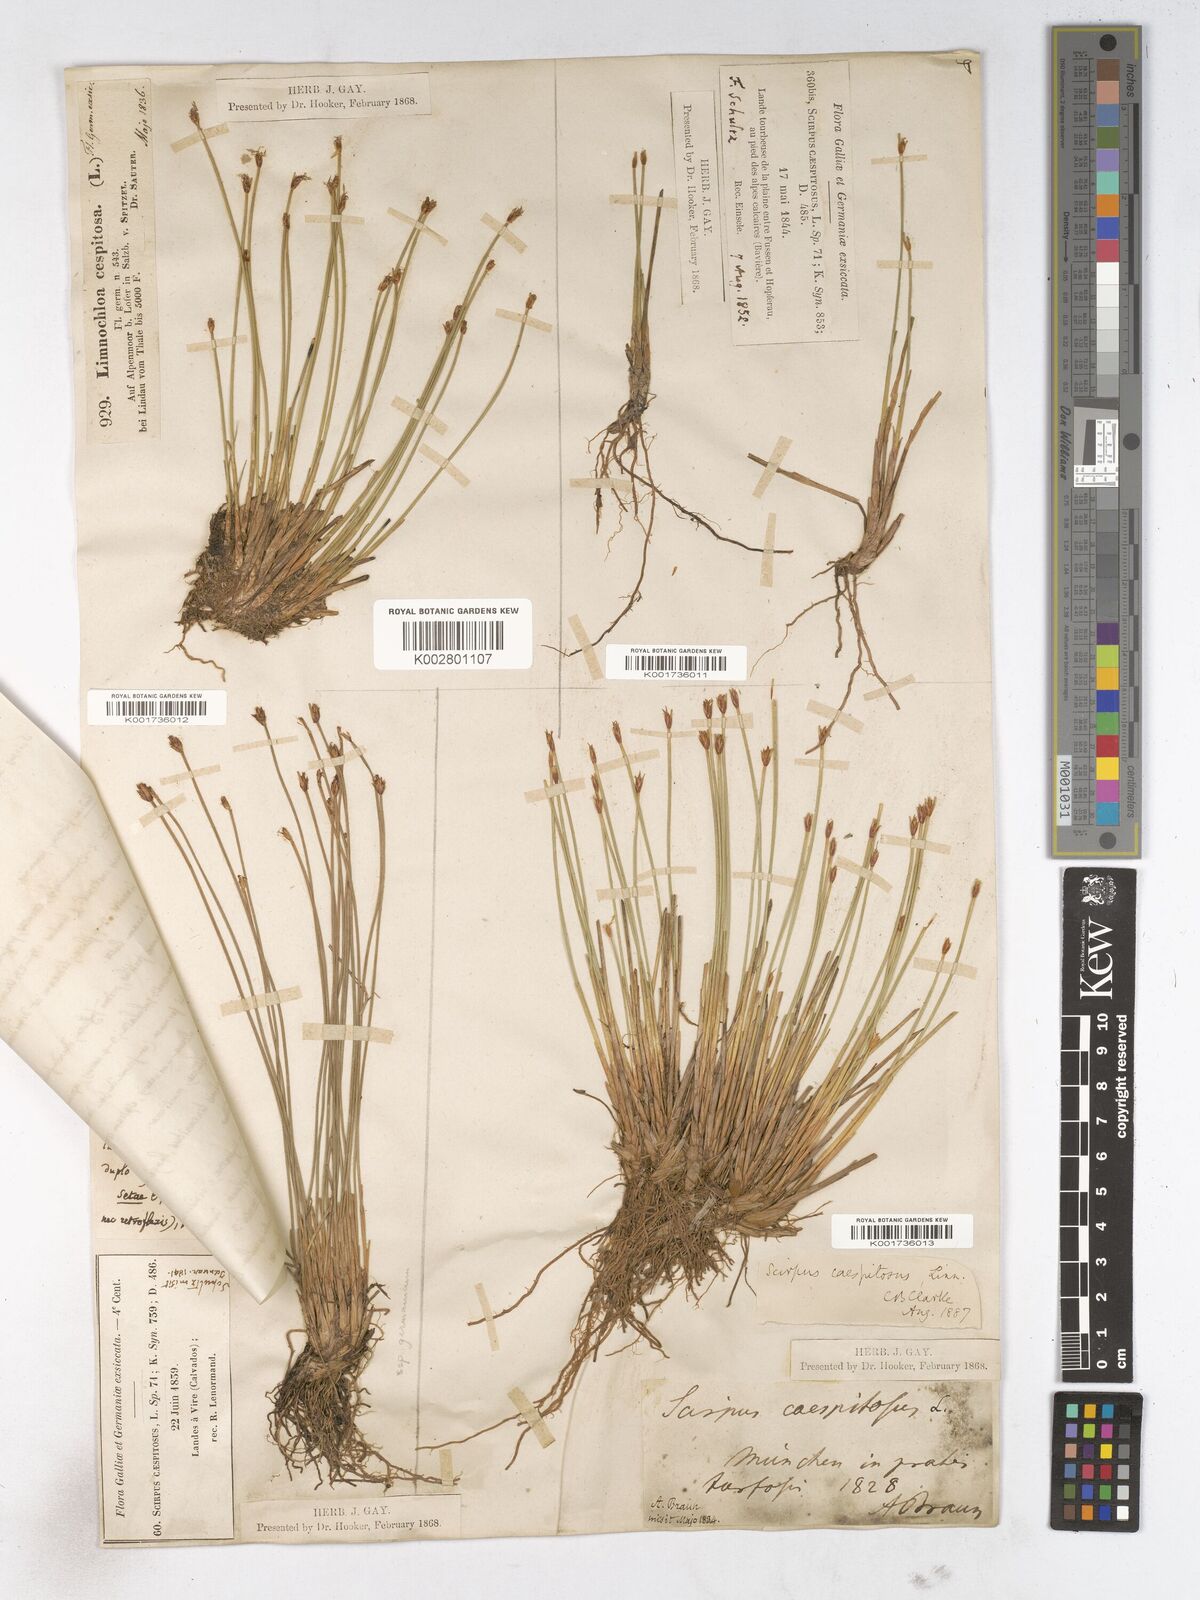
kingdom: Plantae
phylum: Tracheophyta
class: Liliopsida
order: Poales
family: Cyperaceae
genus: Trichophorum
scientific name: Trichophorum cespitosum
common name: Cespitose bulrush
